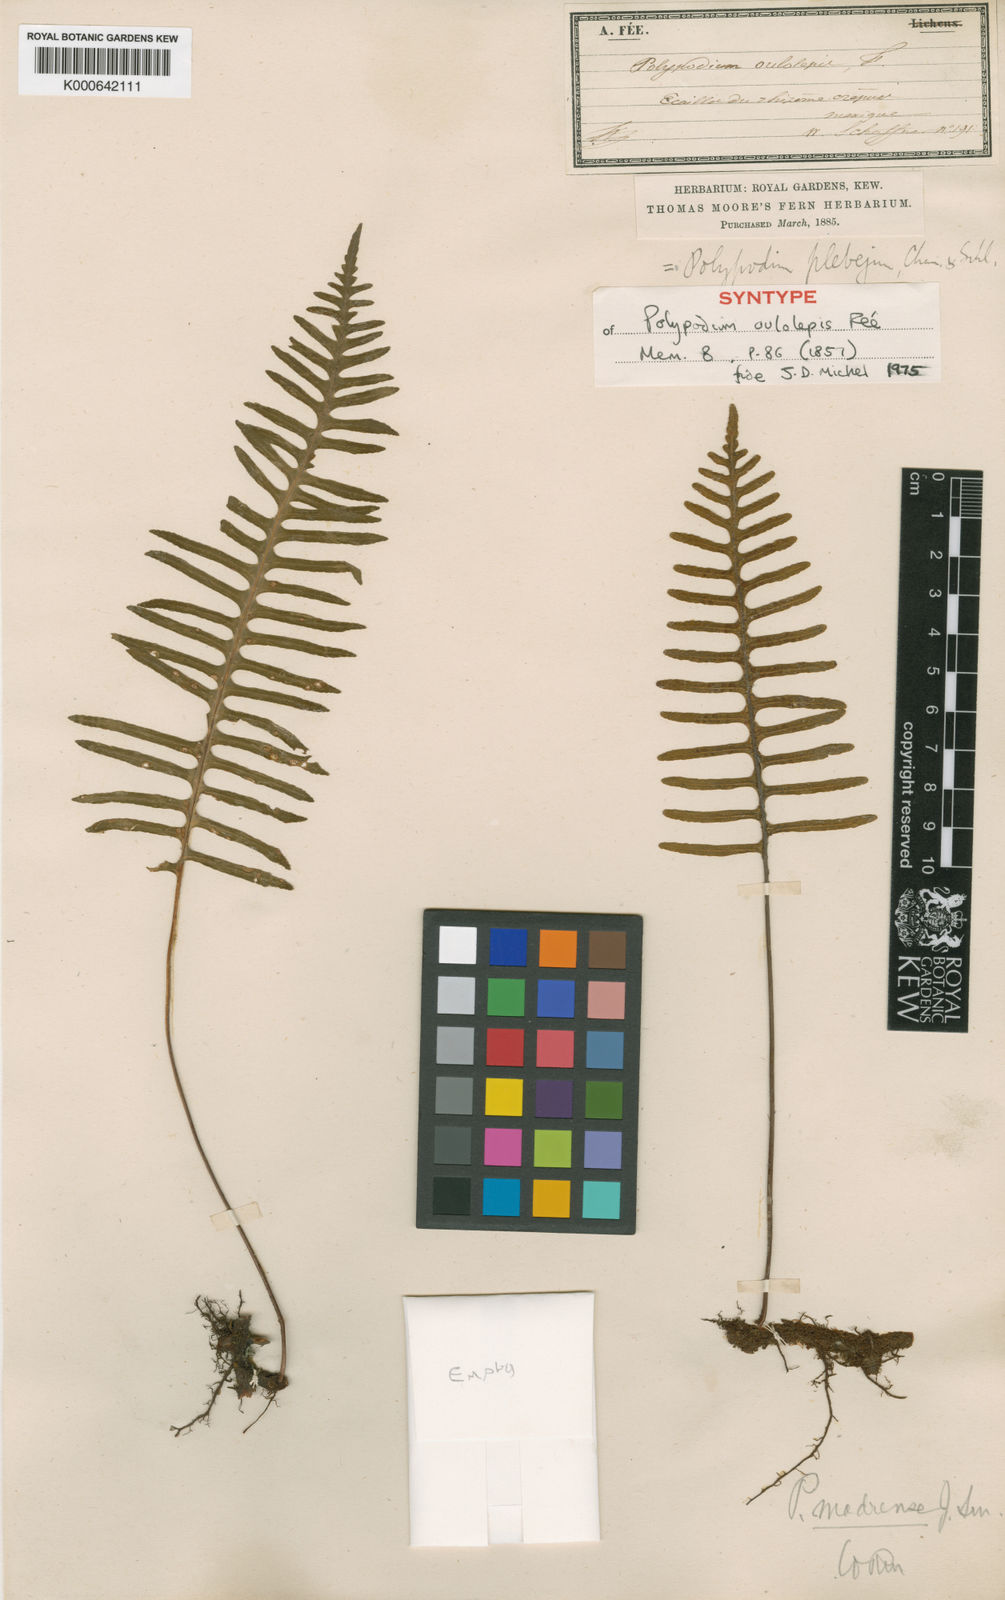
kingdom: Plantae
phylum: Tracheophyta
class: Polypodiopsida
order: Polypodiales
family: Polypodiaceae
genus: Pleopeltis
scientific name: Pleopeltis madrensis
